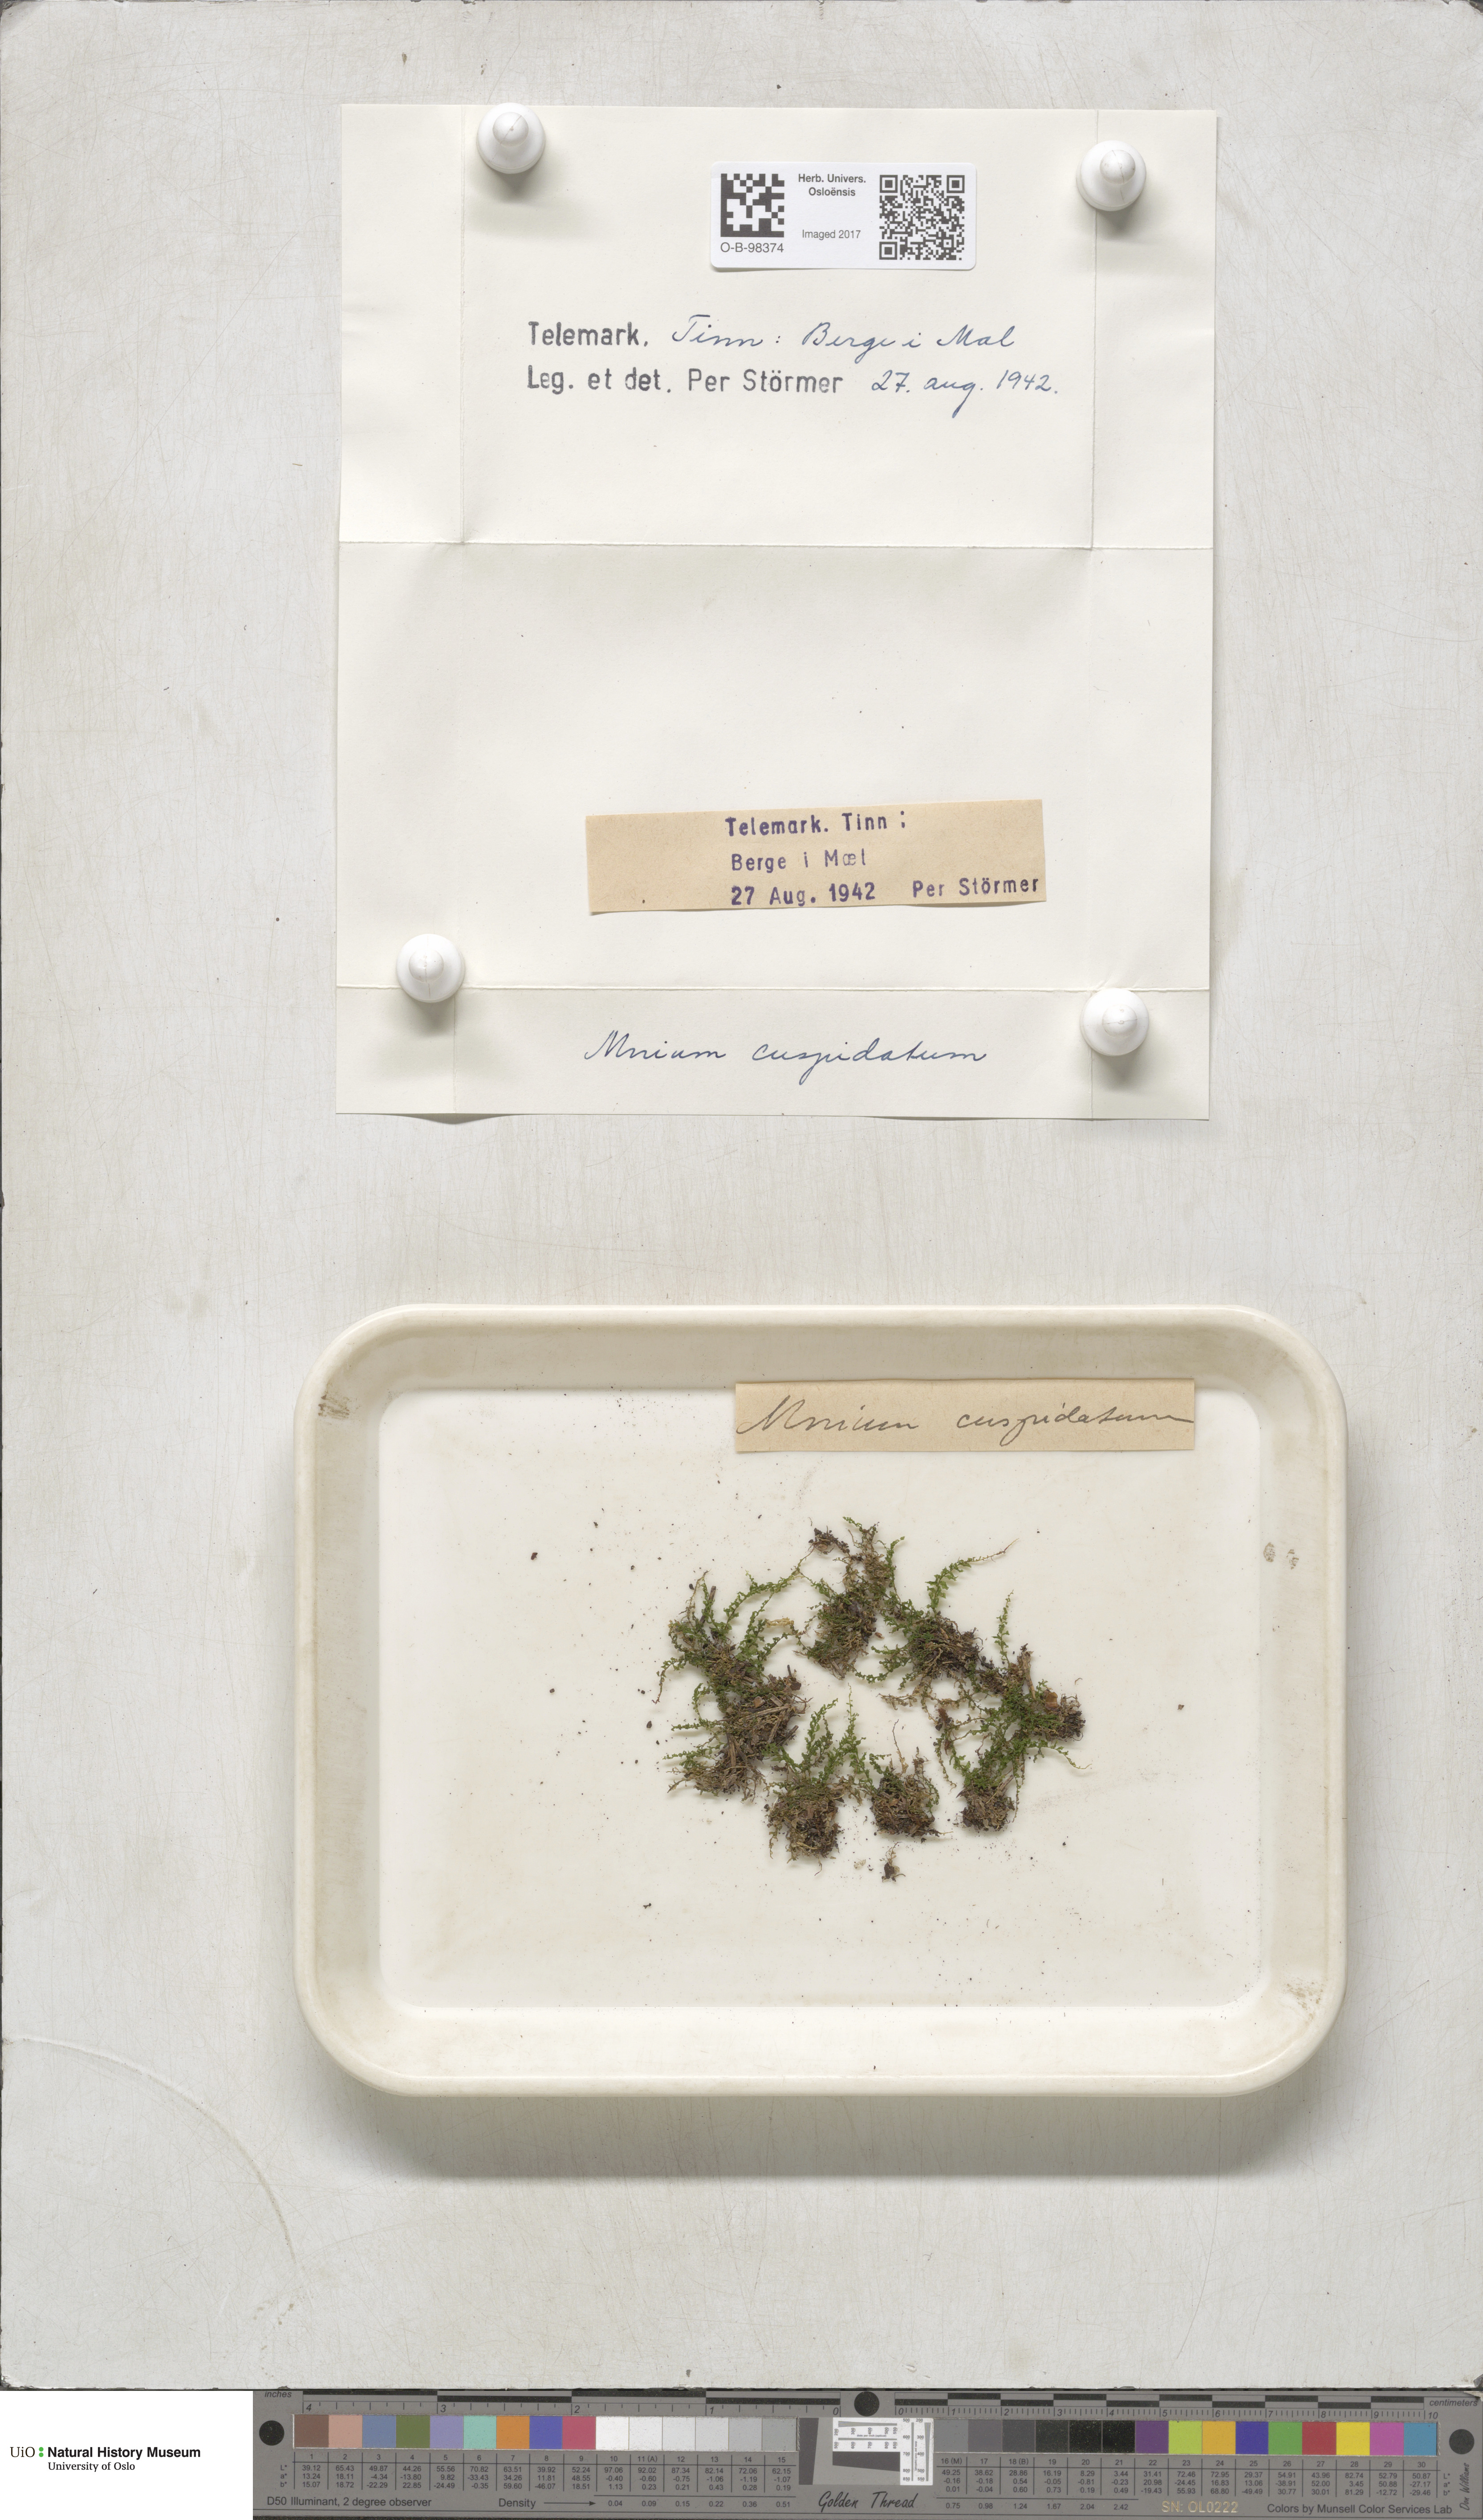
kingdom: Plantae
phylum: Bryophyta
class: Bryopsida
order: Bryales
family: Mniaceae
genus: Plagiomnium
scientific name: Plagiomnium cuspidatum
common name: Woodsy leafy moss
